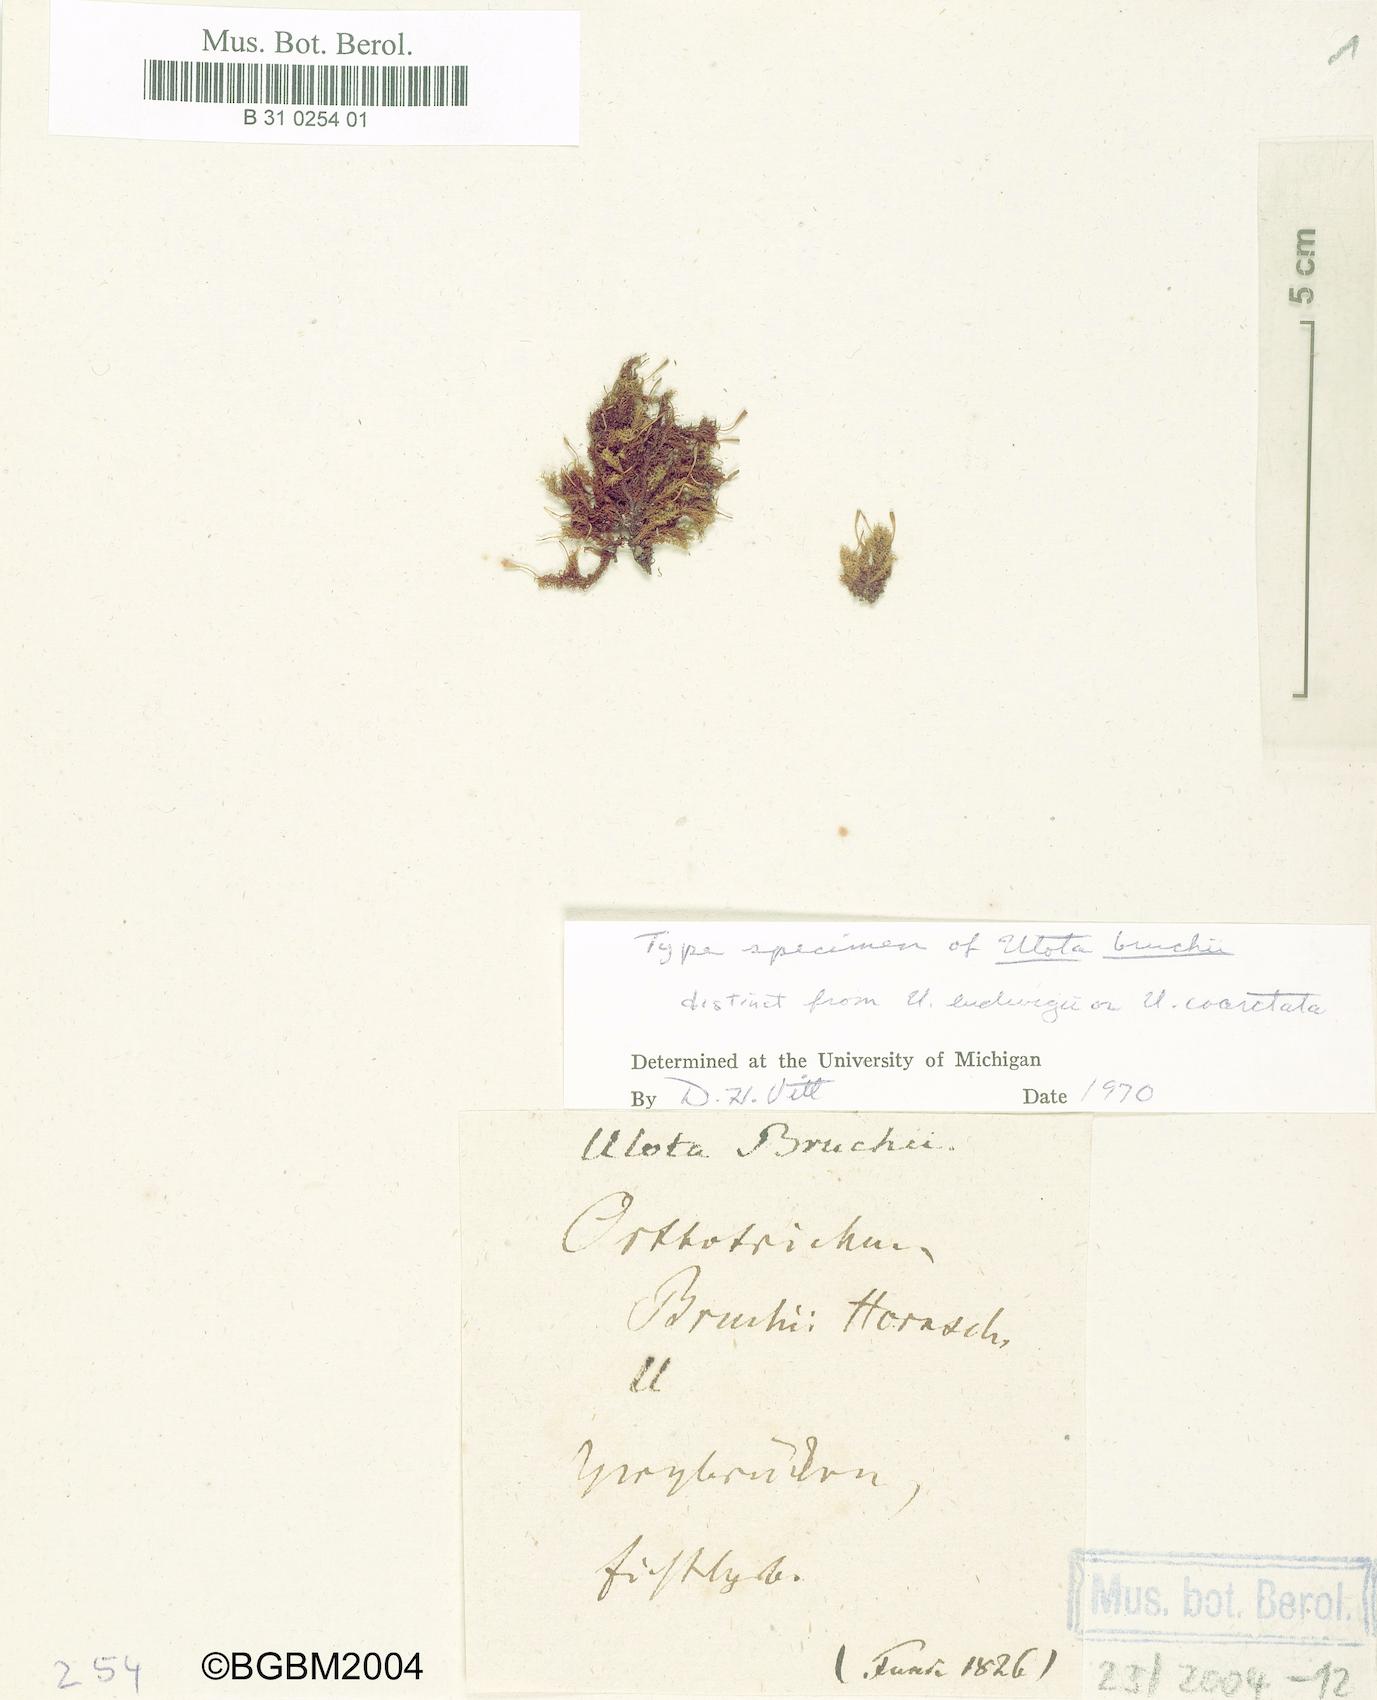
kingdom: Plantae
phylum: Bryophyta
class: Bryopsida
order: Orthotrichales
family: Orthotrichaceae
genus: Ulota
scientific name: Ulota bruchii
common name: Bruch's pincushion
